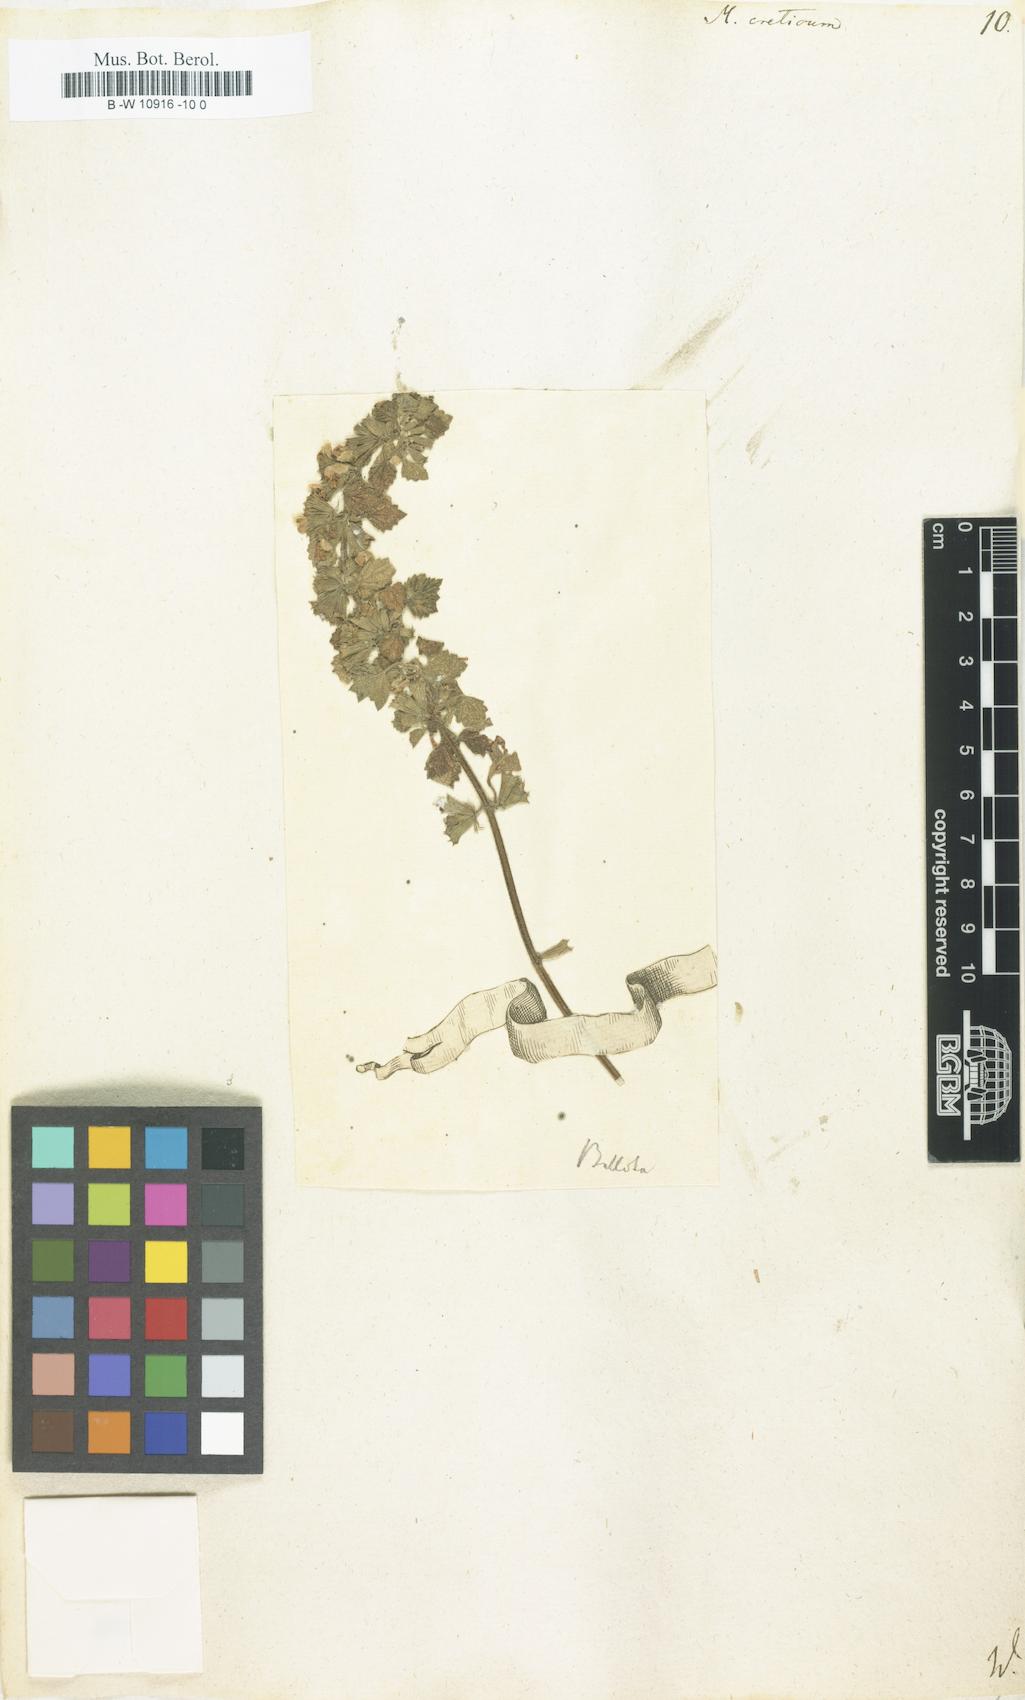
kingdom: Plantae
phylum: Tracheophyta
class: Magnoliopsida
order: Lamiales
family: Lamiaceae
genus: Marrubium
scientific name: Marrubium peregrinum
